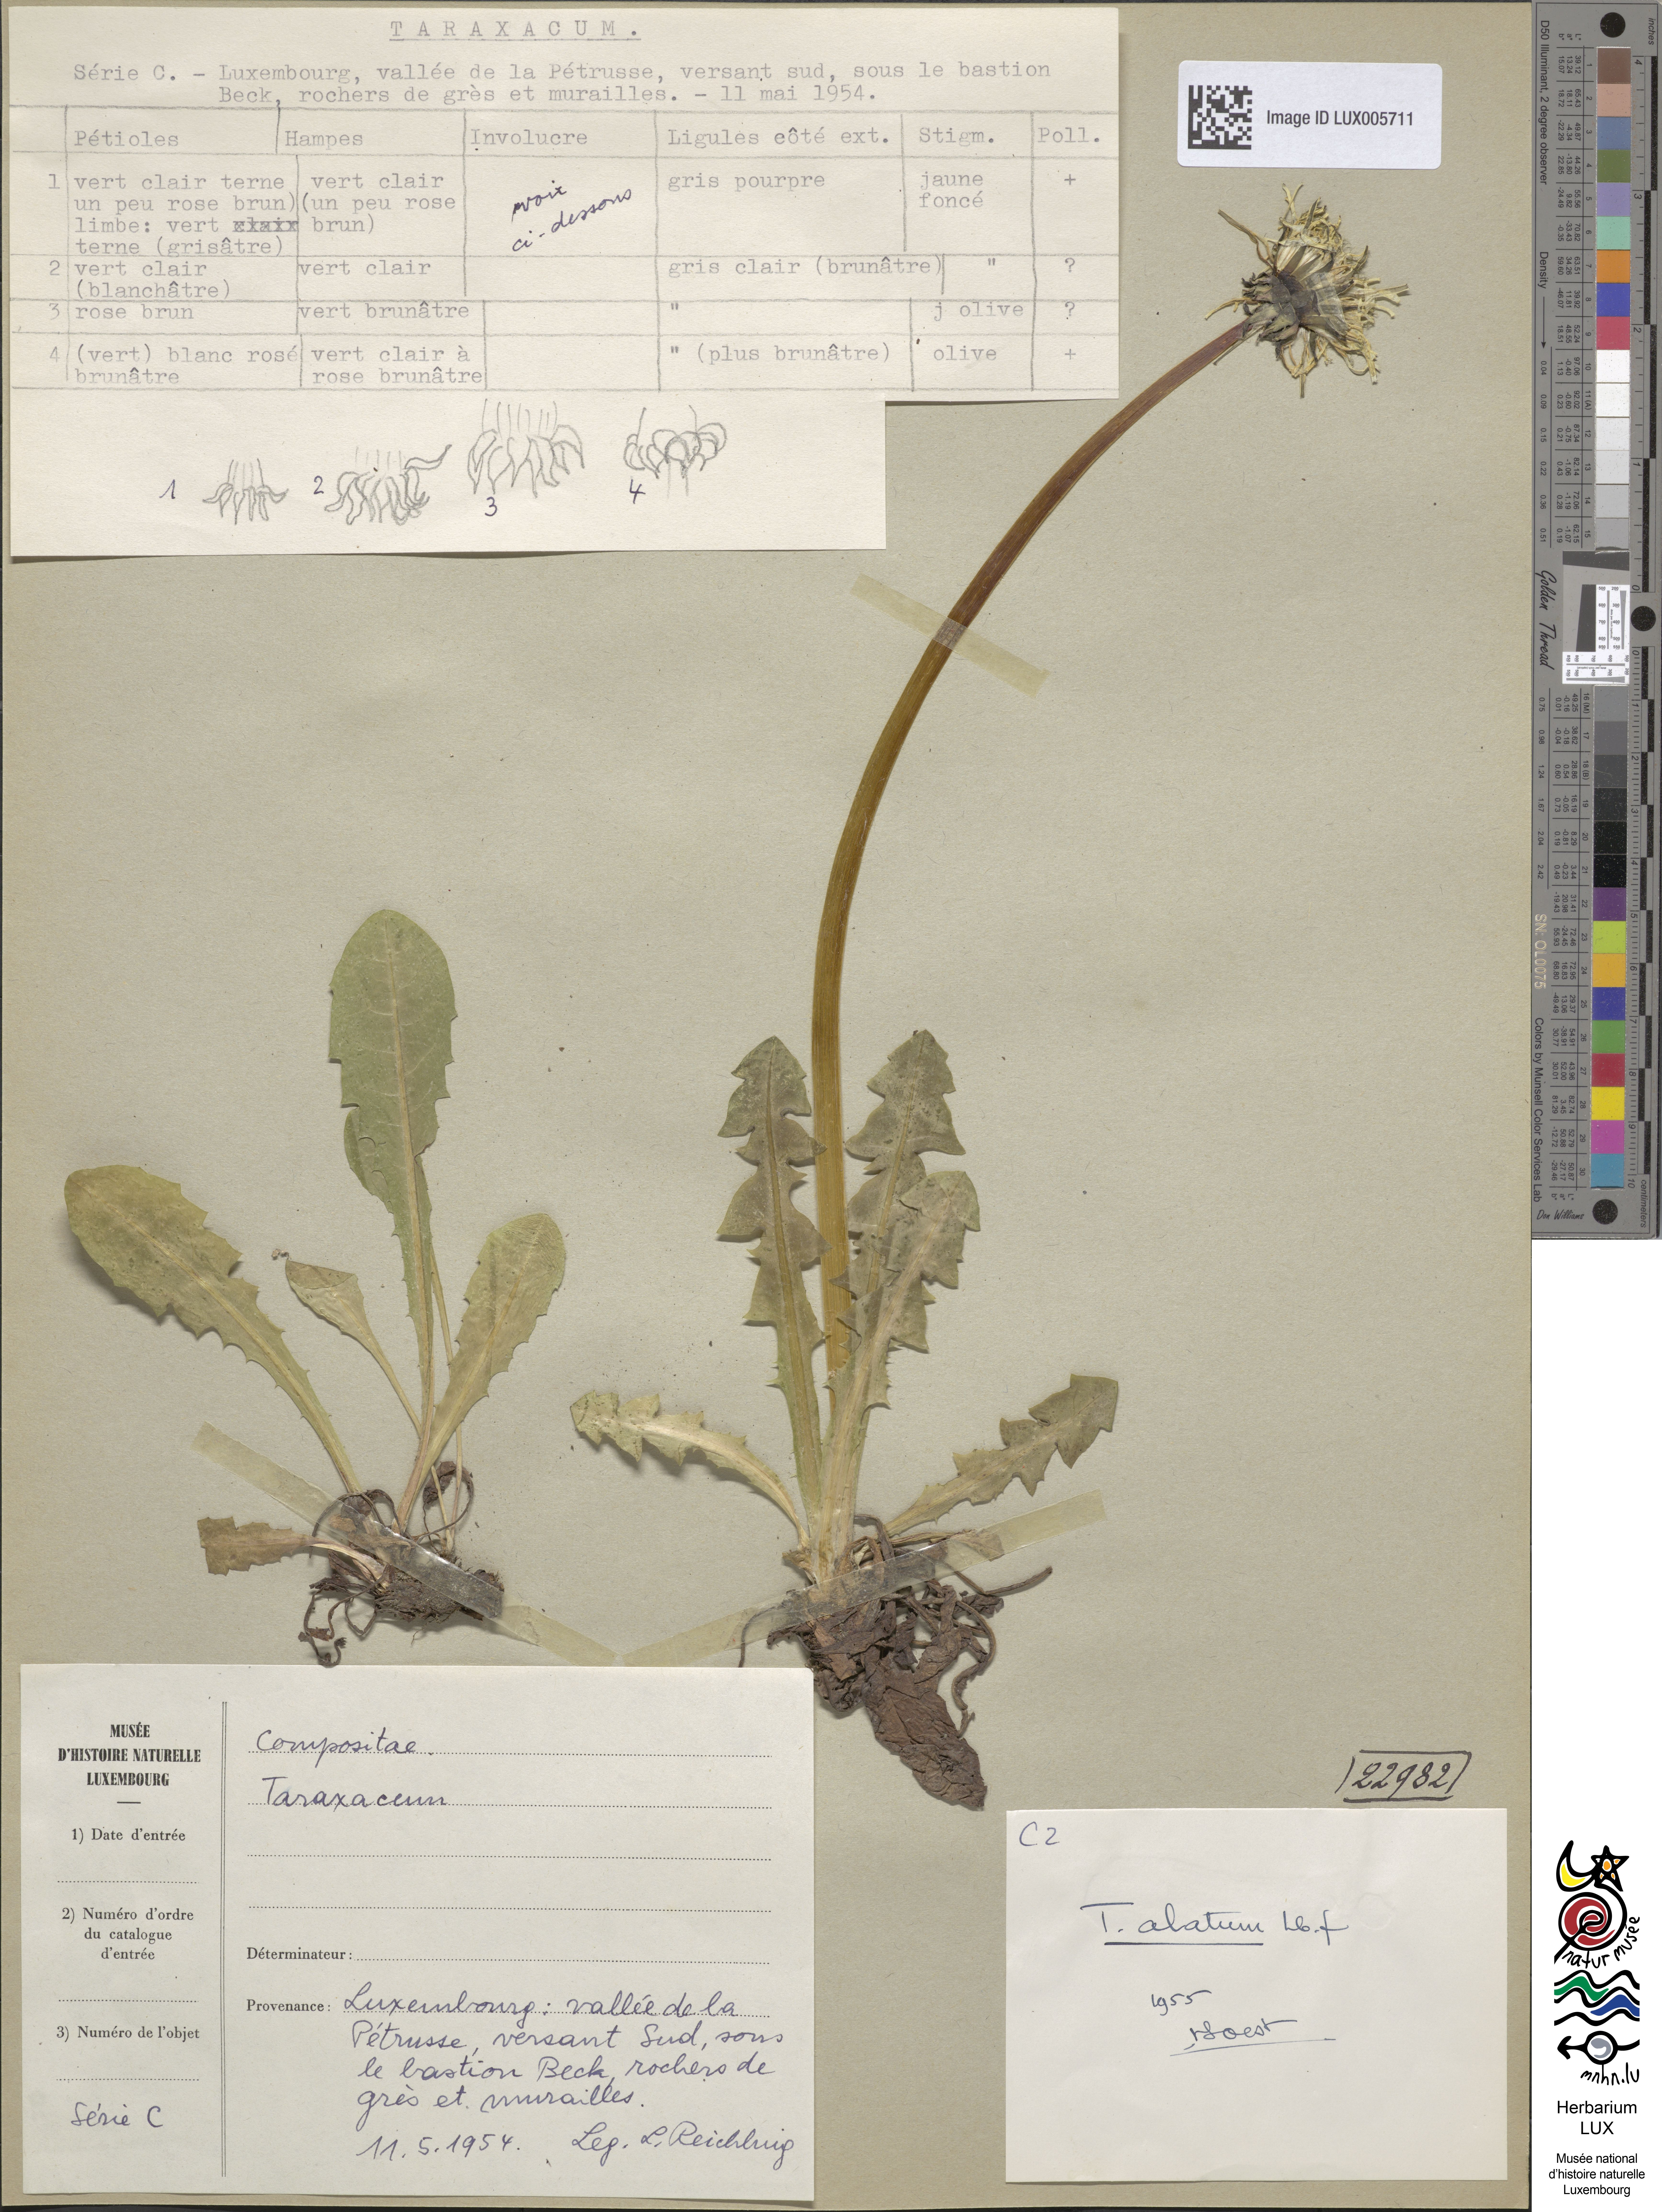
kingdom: Plantae
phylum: Tracheophyta
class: Magnoliopsida
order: Asterales
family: Asteraceae
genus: Taraxacum
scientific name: Taraxacum alatum
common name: Green dandelion
